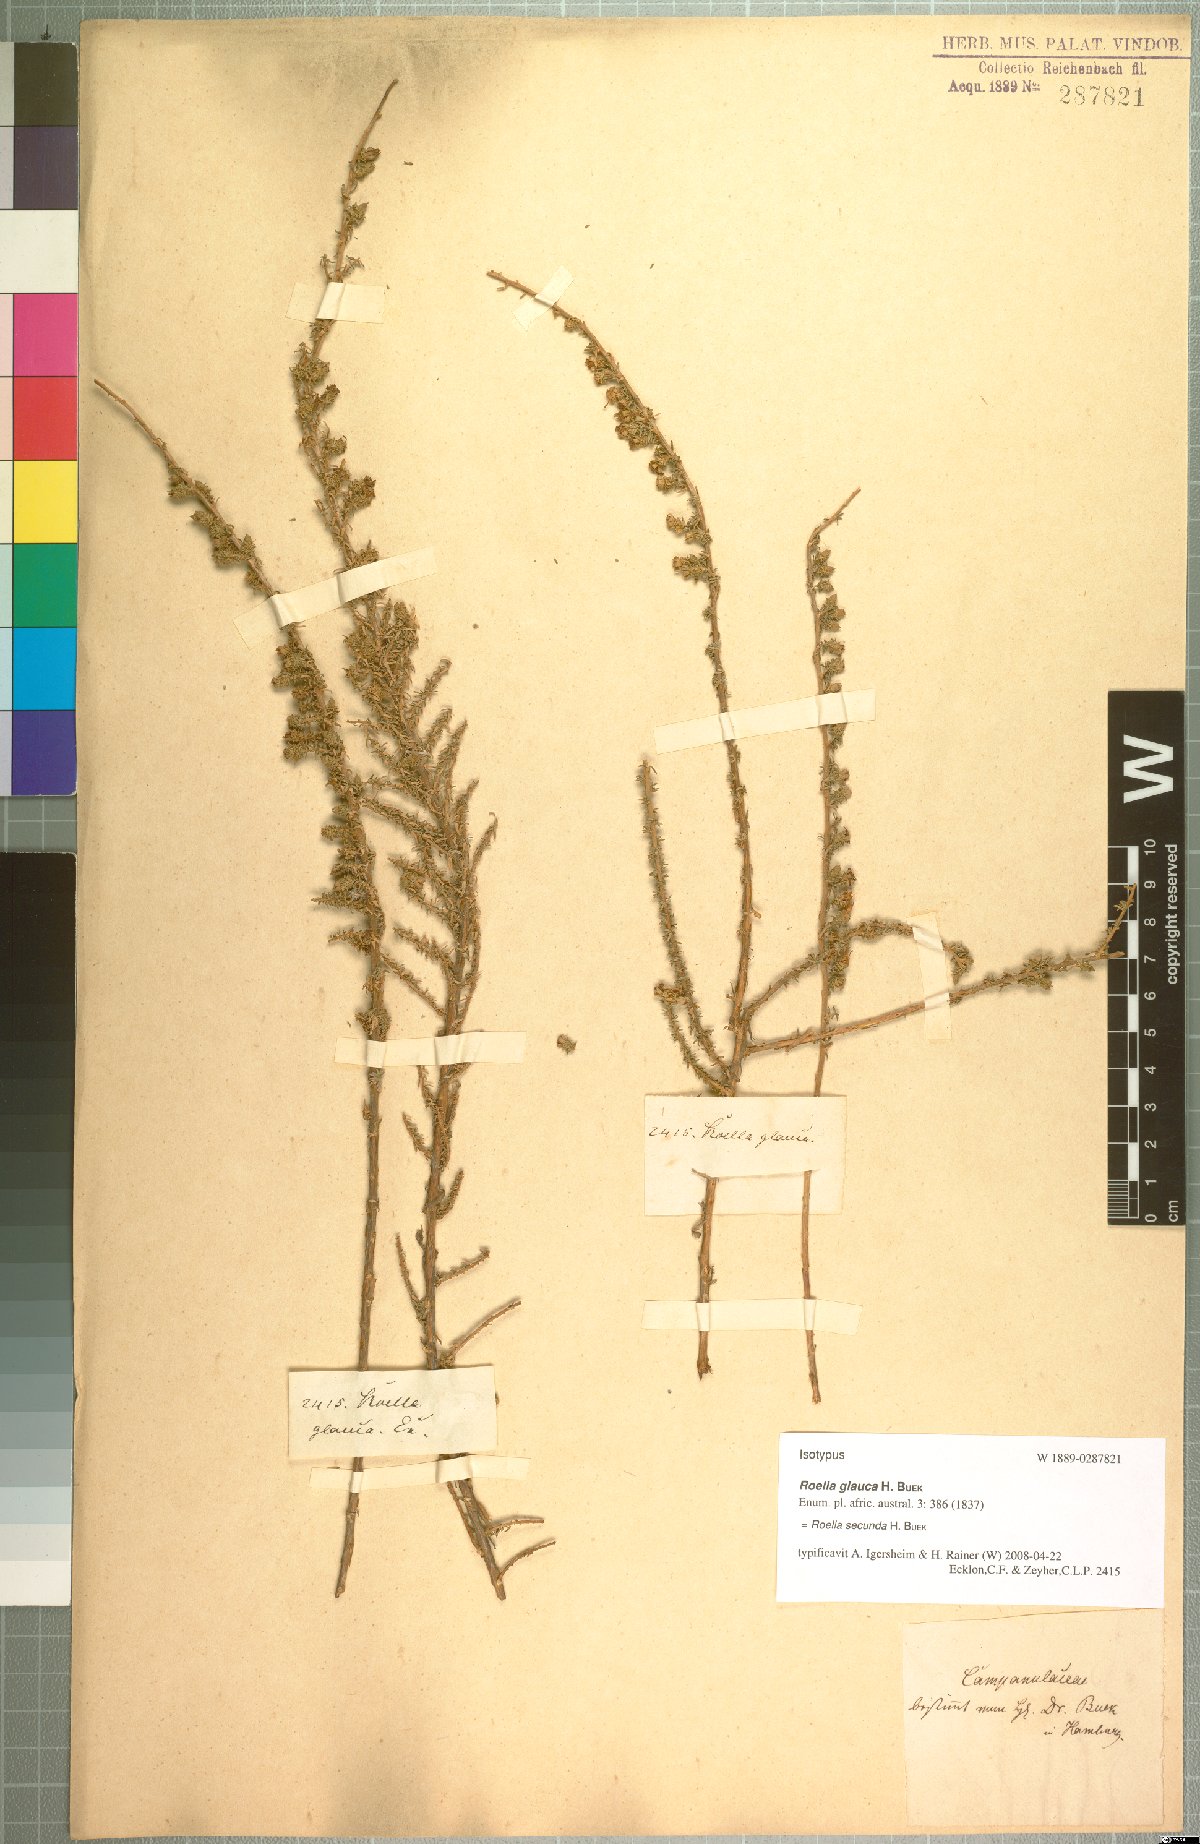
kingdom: Plantae
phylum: Tracheophyta
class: Magnoliopsida
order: Asterales
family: Campanulaceae
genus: Roella
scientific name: Roella secunda
